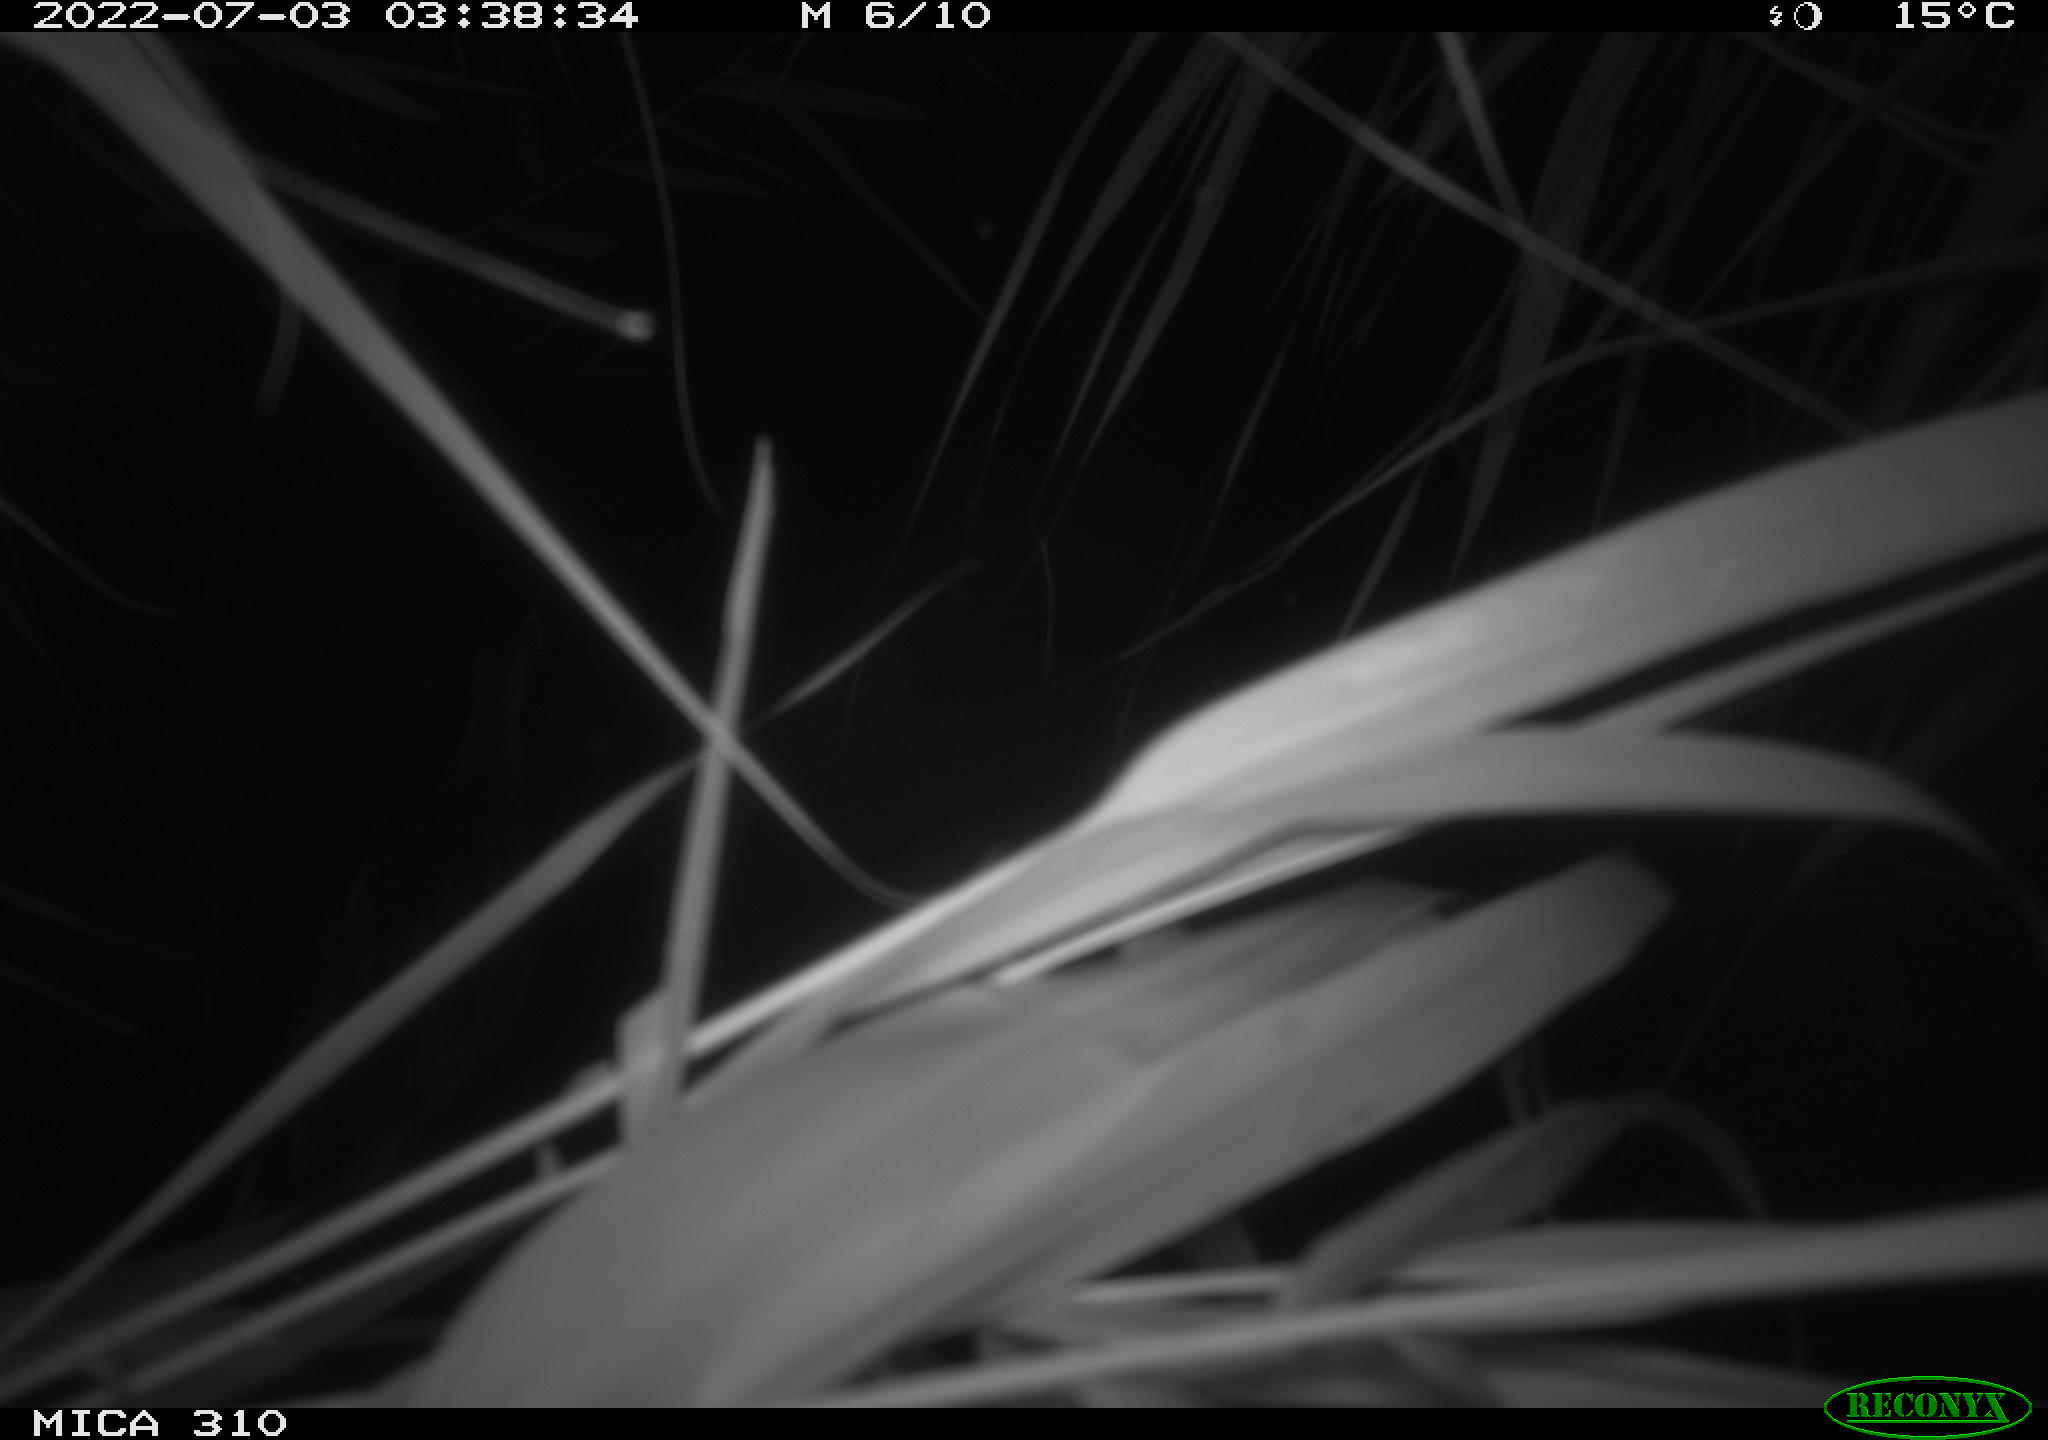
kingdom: Animalia
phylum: Chordata
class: Aves
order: Anseriformes
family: Anatidae
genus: Anas
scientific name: Anas platyrhynchos
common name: Mallard
